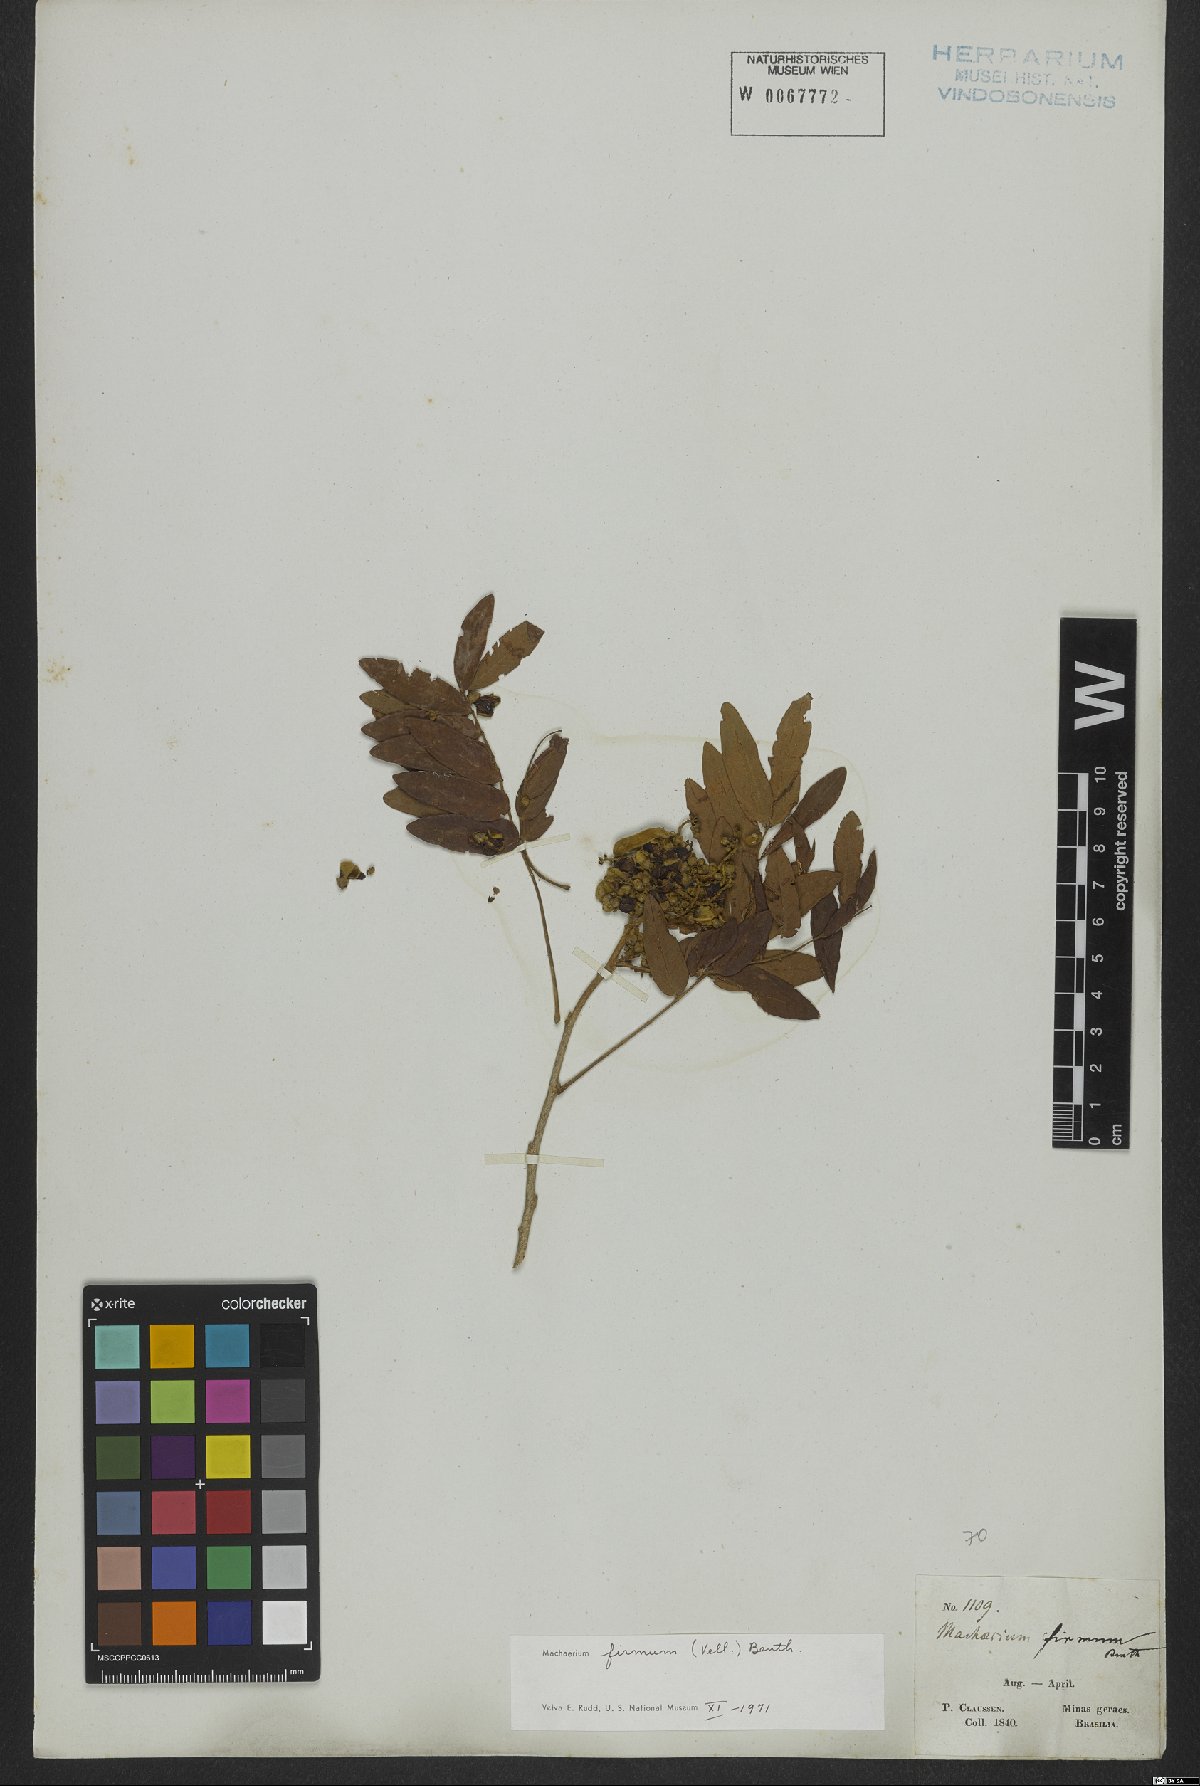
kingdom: Plantae
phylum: Tracheophyta
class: Magnoliopsida
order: Fabales
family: Fabaceae
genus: Machaerium
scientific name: Machaerium firmum
